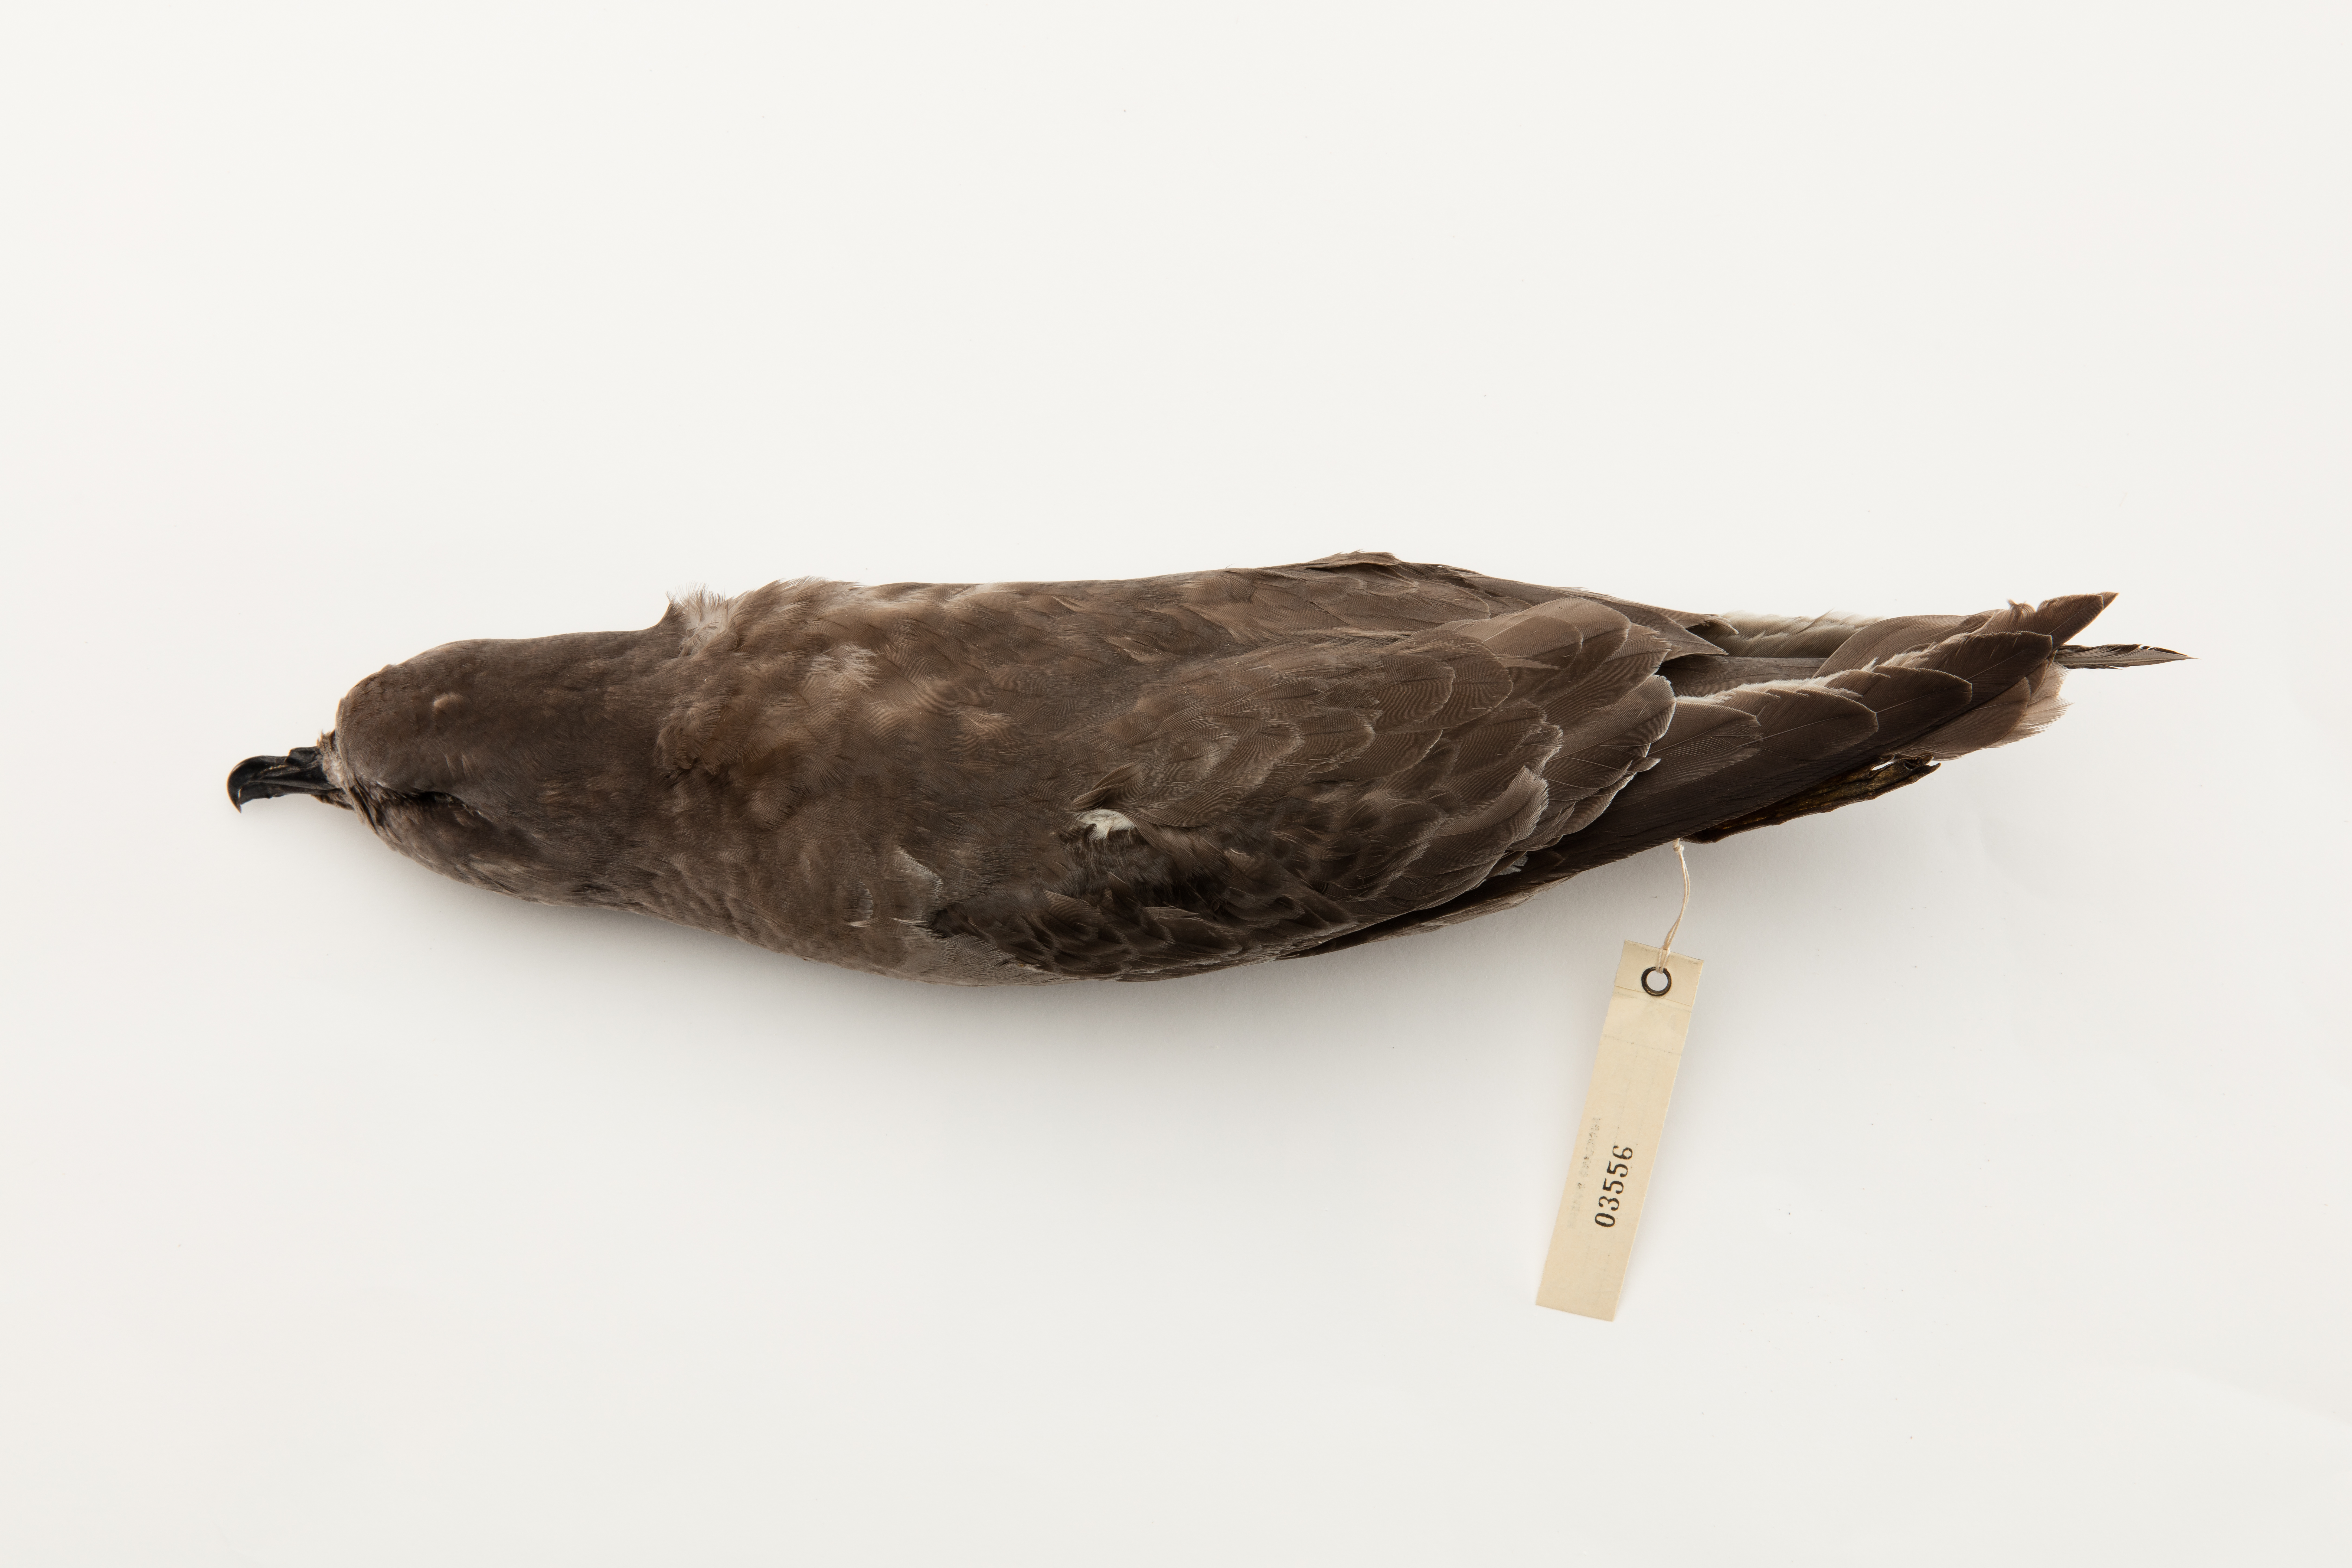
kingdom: Animalia
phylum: Chordata
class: Aves
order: Procellariiformes
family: Procellariidae
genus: Aphrodroma
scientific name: Aphrodroma brevirostris
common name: Kerguelen petrel
